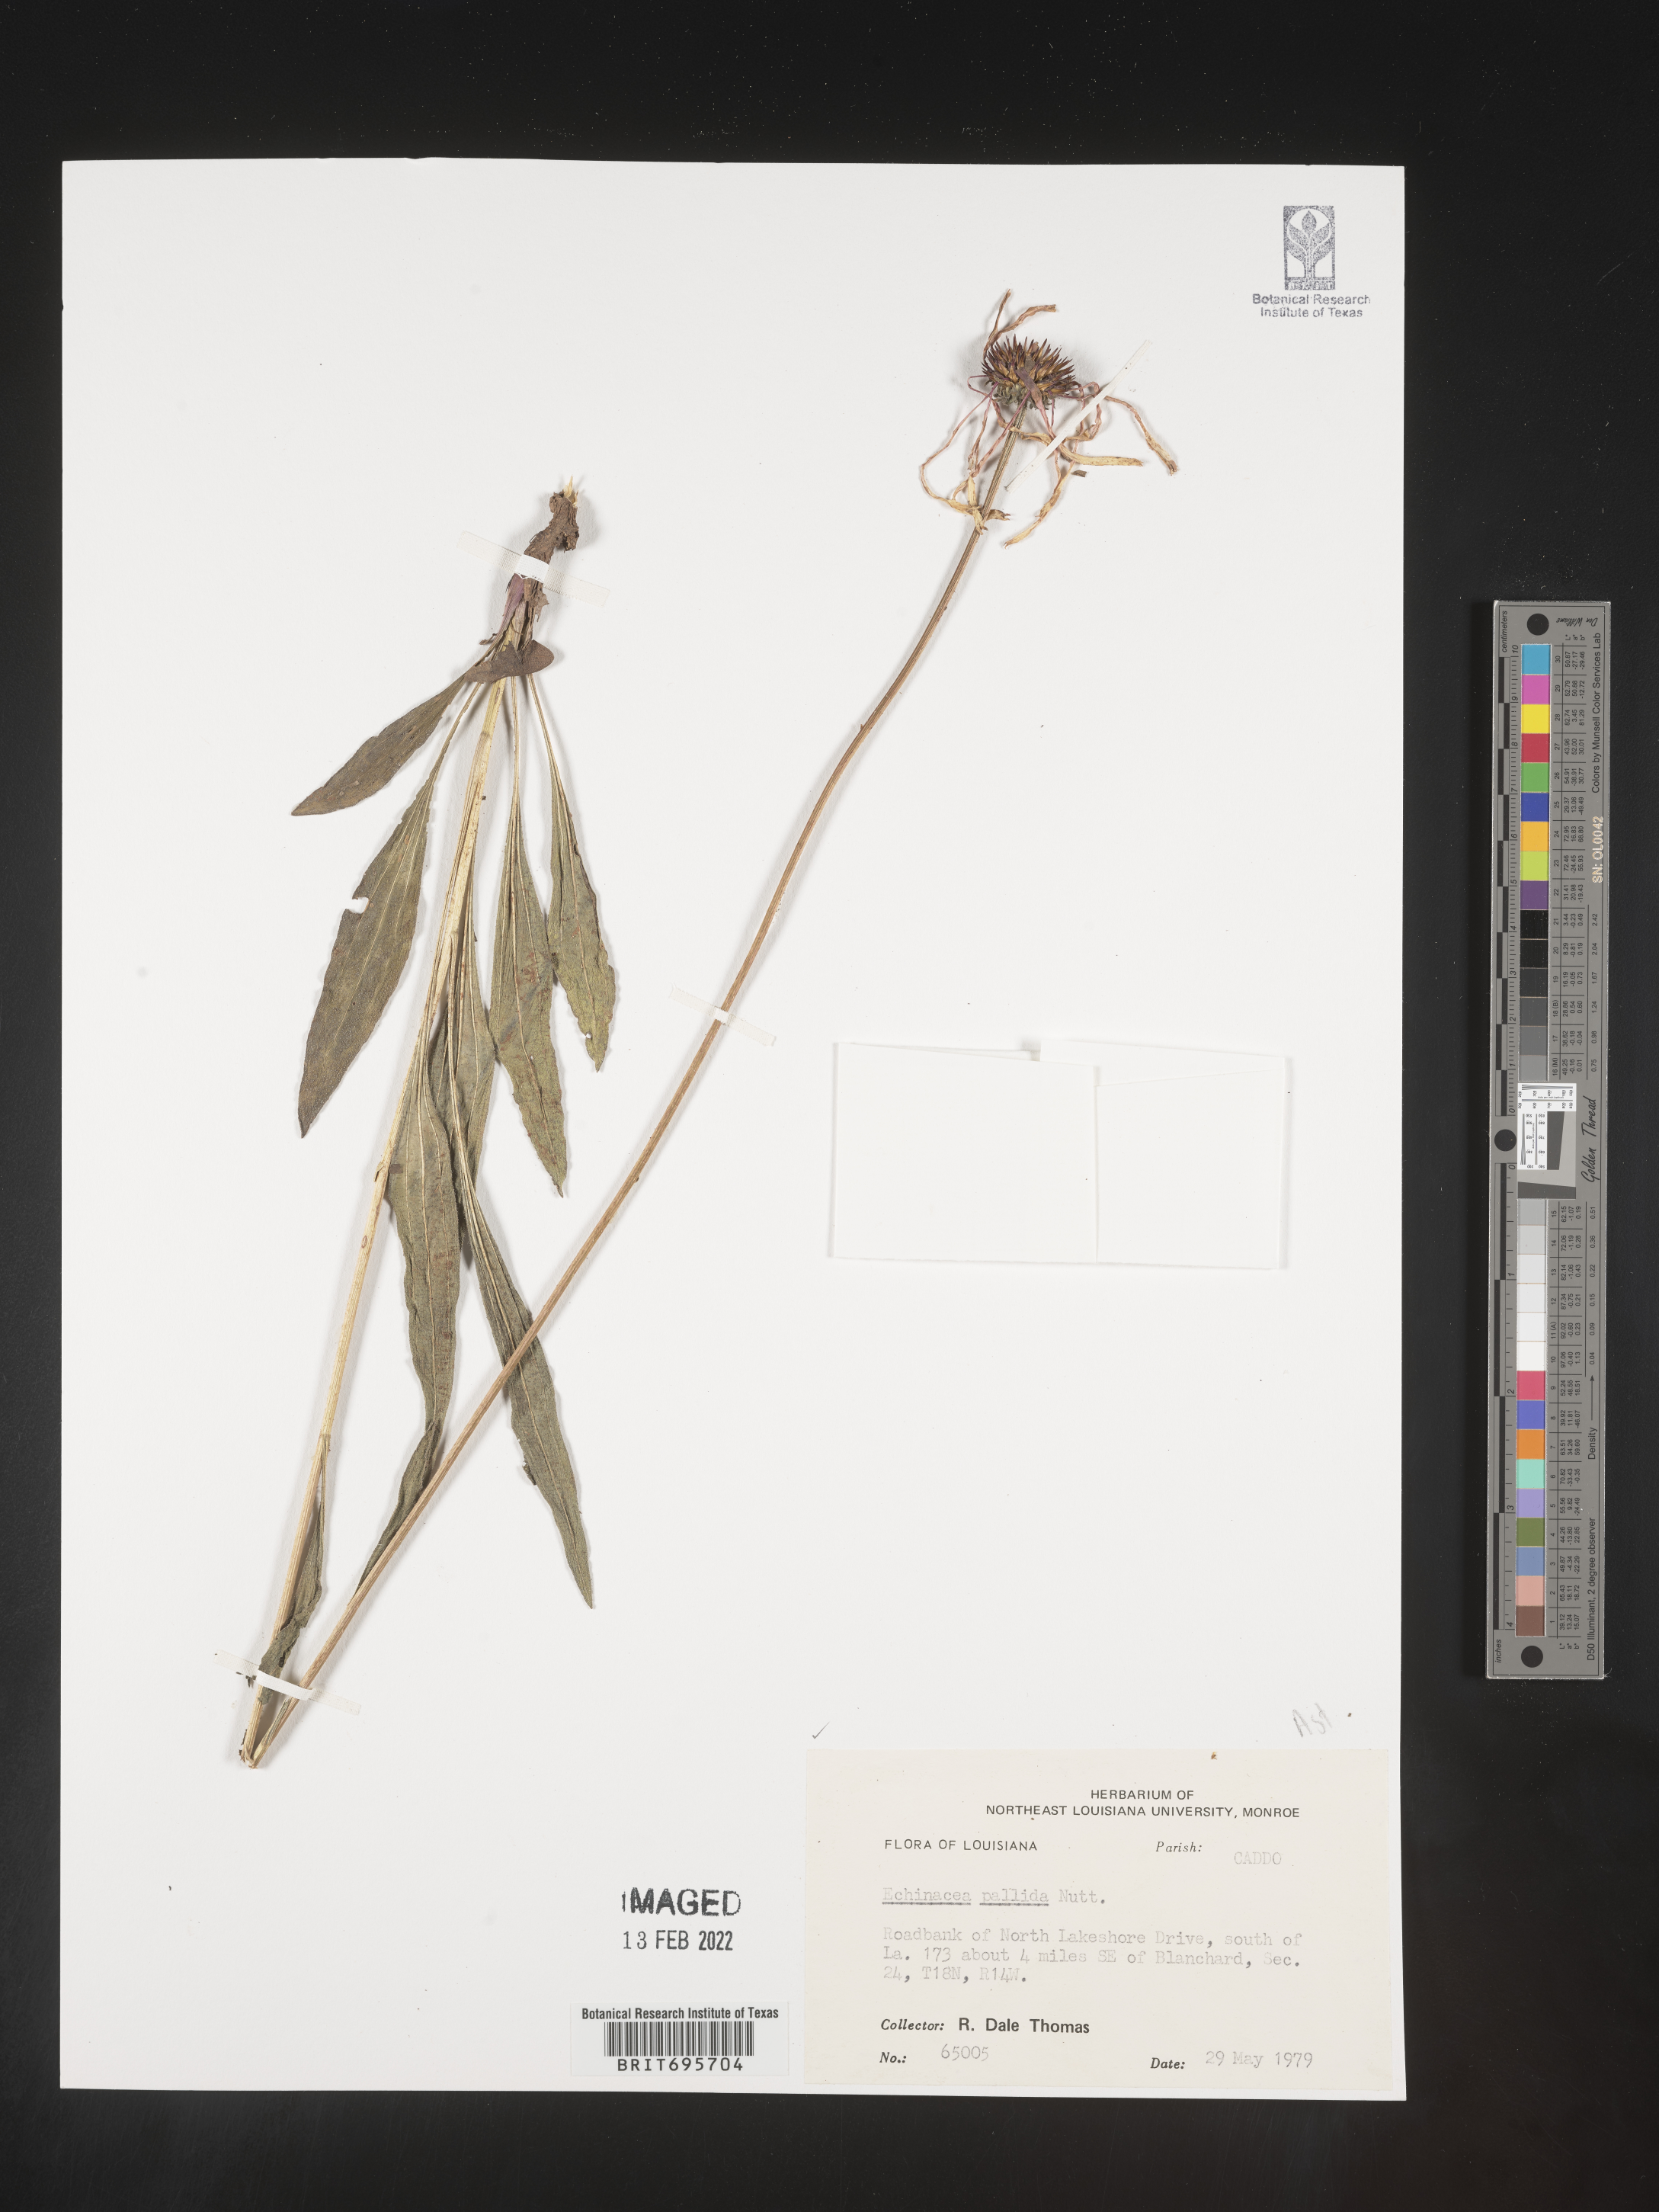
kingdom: Plantae
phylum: Tracheophyta
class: Magnoliopsida
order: Asterales
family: Asteraceae
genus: Echinacea
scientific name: Echinacea pallida
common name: Pale echinacea
